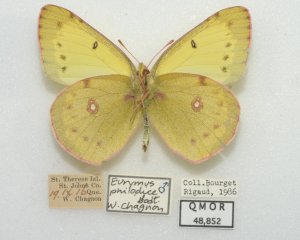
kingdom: Animalia
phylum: Arthropoda
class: Insecta
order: Lepidoptera
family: Pieridae
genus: Colias
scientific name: Colias philodice
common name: Clouded Sulphur
